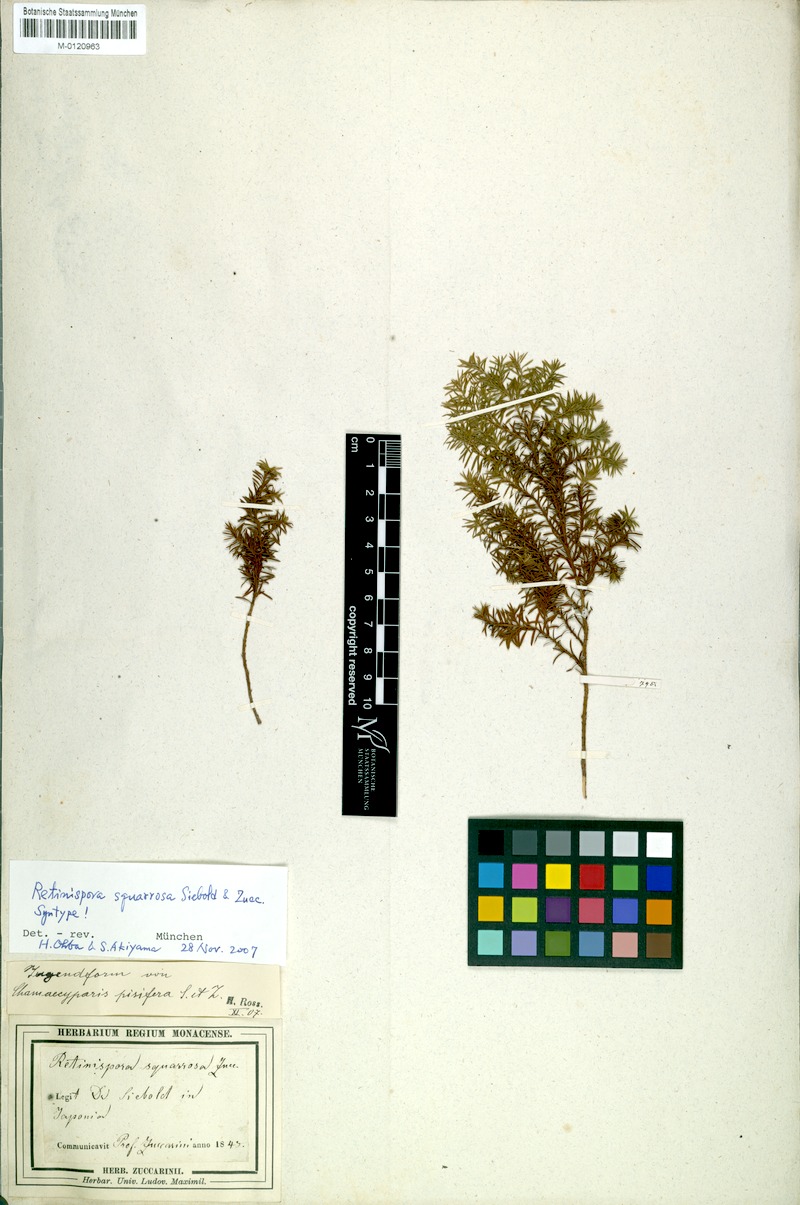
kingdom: Plantae
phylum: Tracheophyta
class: Pinopsida
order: Pinales
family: Cupressaceae
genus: Chamaecyparis
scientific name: Chamaecyparis pisifera
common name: Sawara cypress
